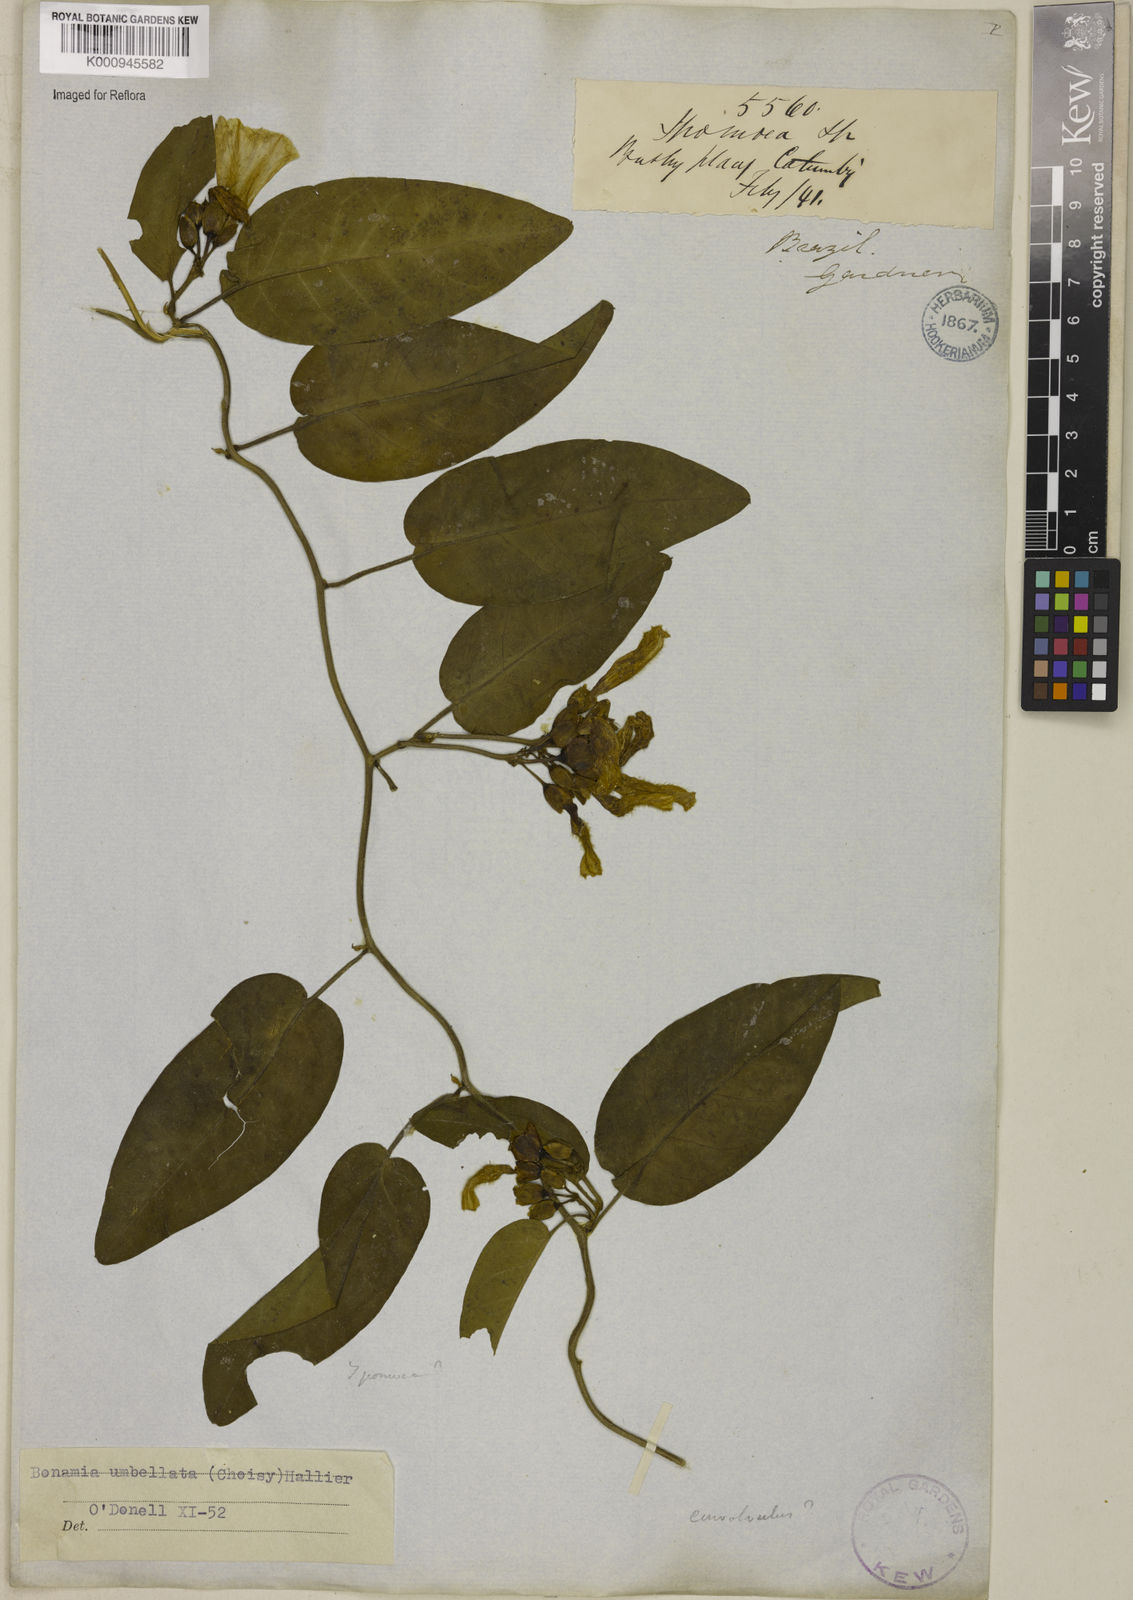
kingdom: Plantae
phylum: Tracheophyta
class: Magnoliopsida
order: Solanales
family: Convolvulaceae
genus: Bonamia
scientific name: Bonamia umbellata
